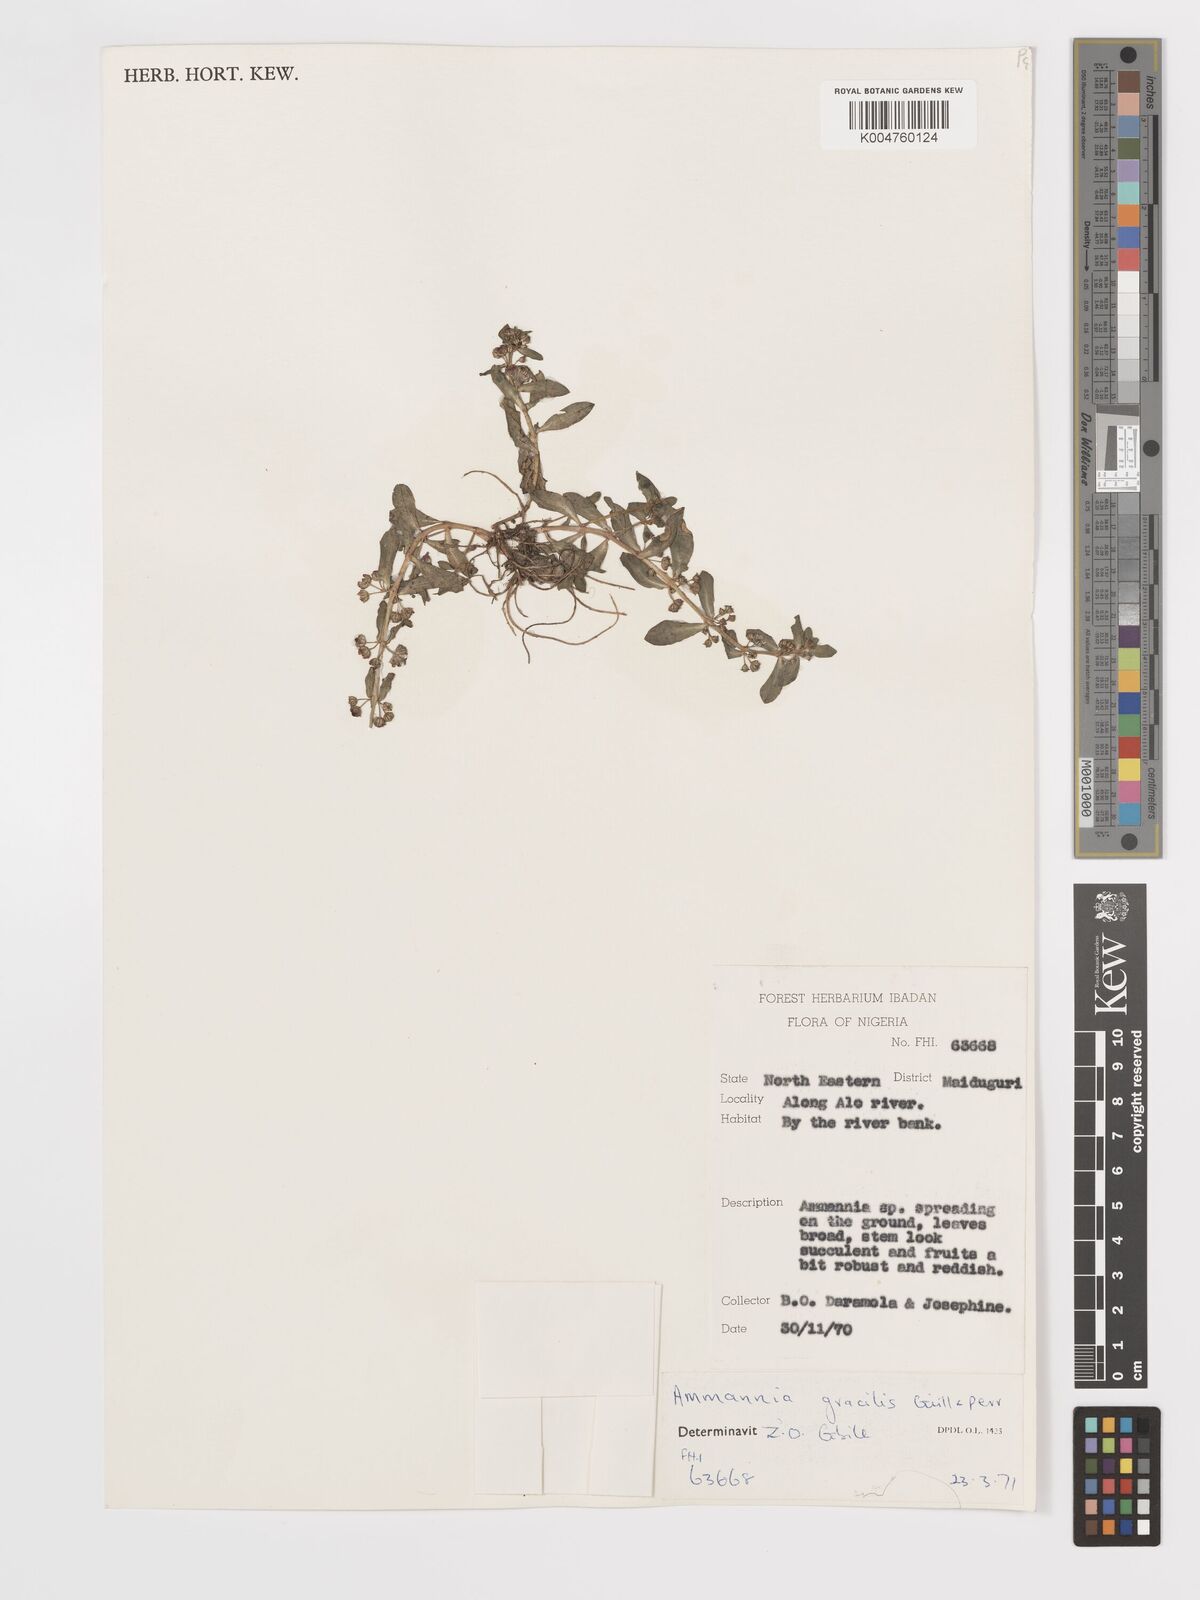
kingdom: Plantae
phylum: Tracheophyta
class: Magnoliopsida
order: Myrtales
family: Lythraceae
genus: Ammannia
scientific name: Ammannia gracilis
